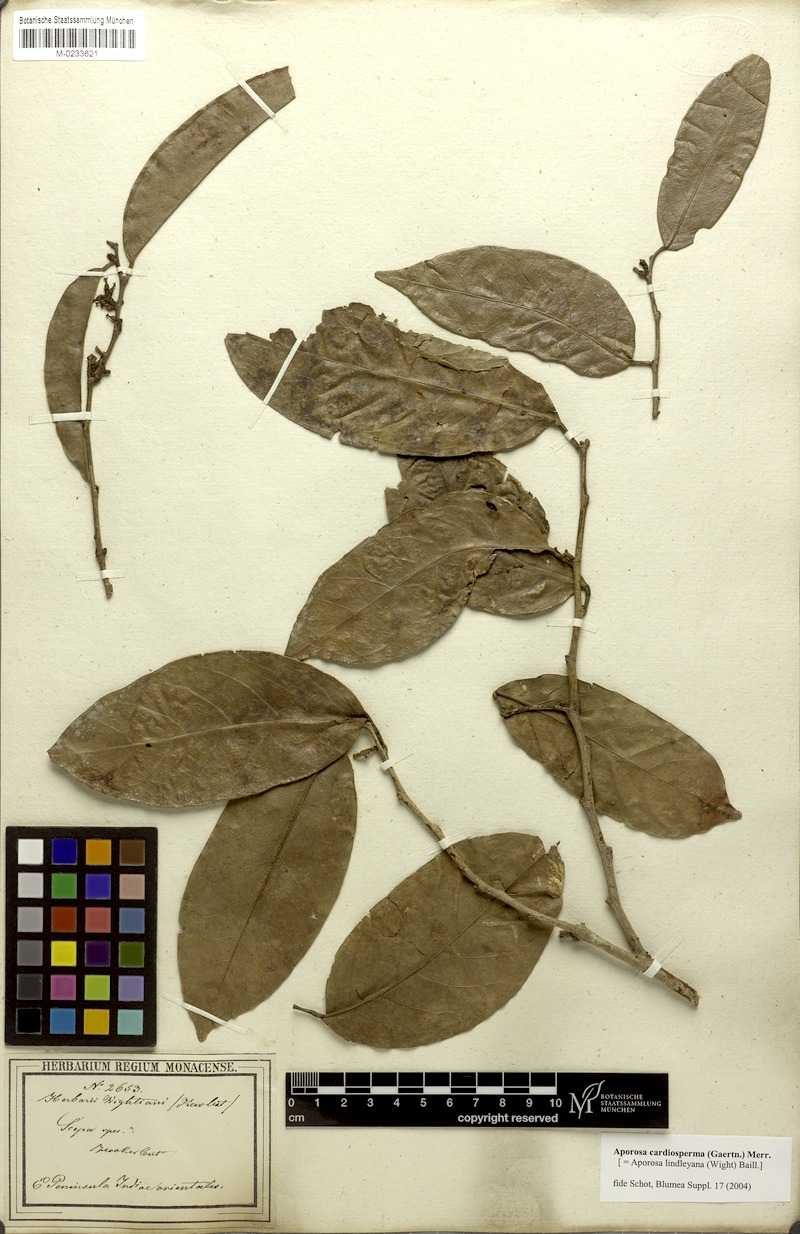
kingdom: Plantae
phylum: Tracheophyta
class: Magnoliopsida
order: Malpighiales
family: Phyllanthaceae
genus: Aporosa
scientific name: Aporosa cardiosperma
